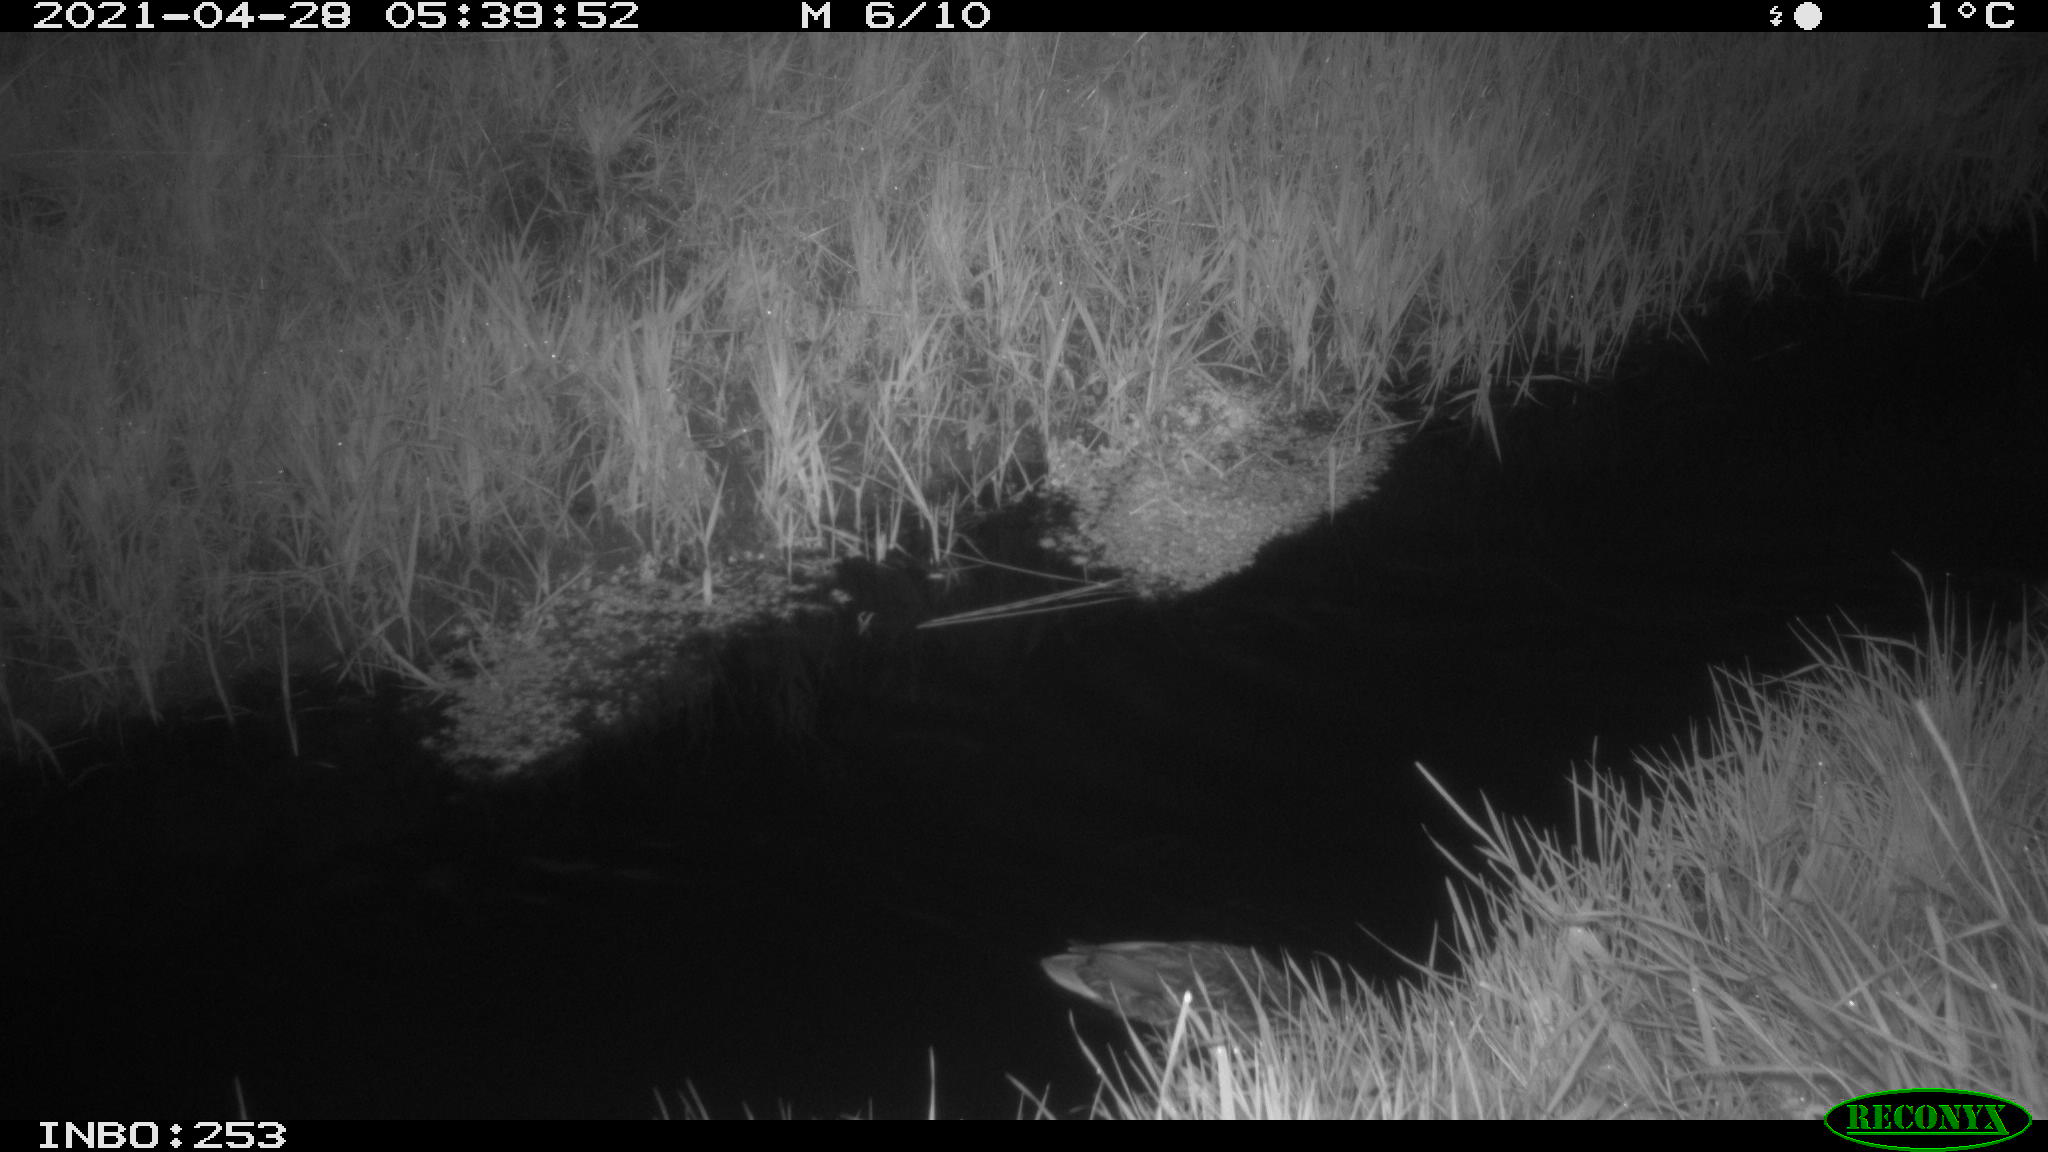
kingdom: Animalia
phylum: Chordata
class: Aves
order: Anseriformes
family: Anatidae
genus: Anas
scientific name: Anas platyrhynchos
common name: Mallard
